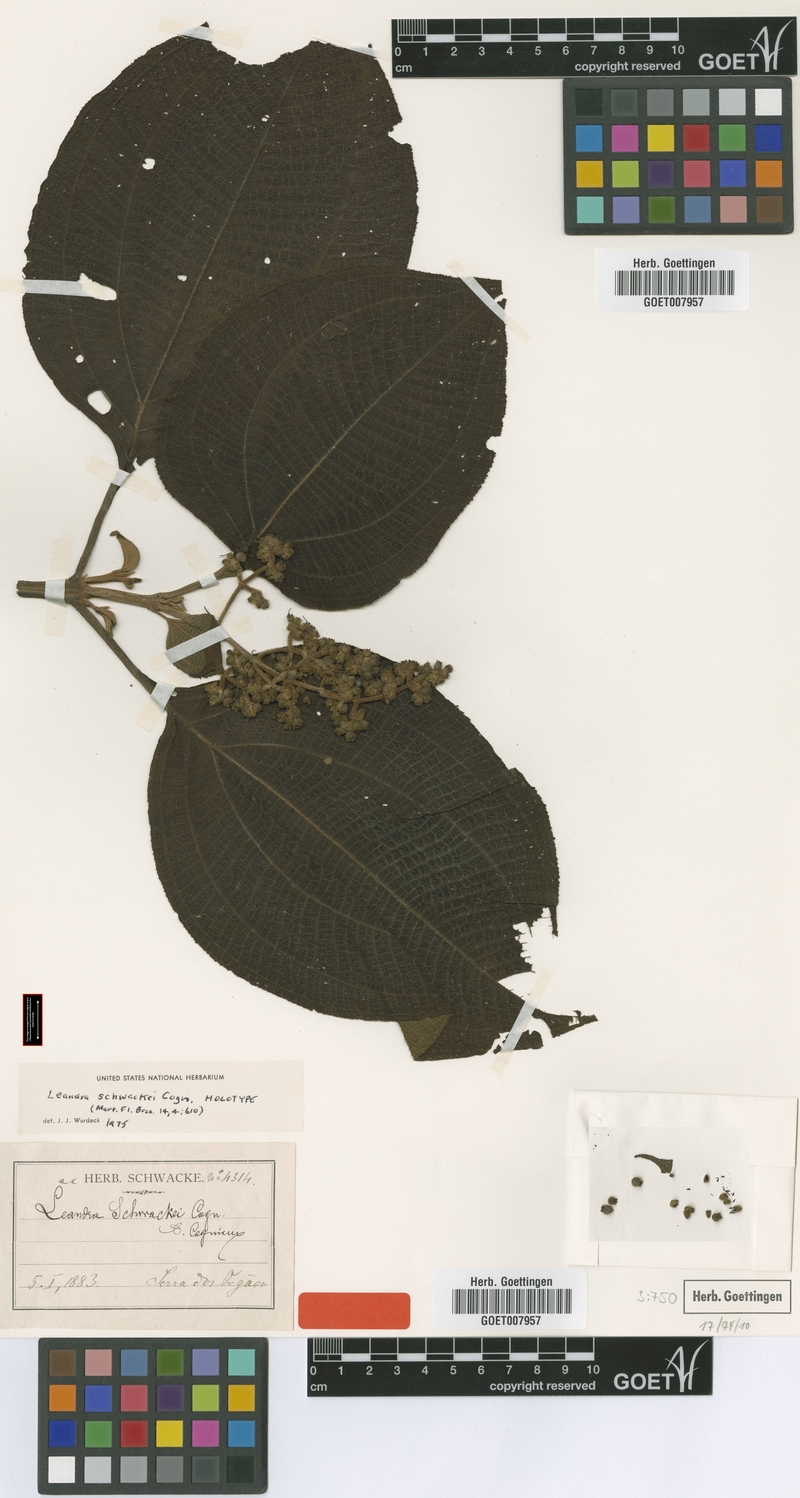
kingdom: Plantae
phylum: Tracheophyta
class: Magnoliopsida
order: Myrtales
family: Melastomataceae
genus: Miconia
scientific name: Miconia alterninervia
